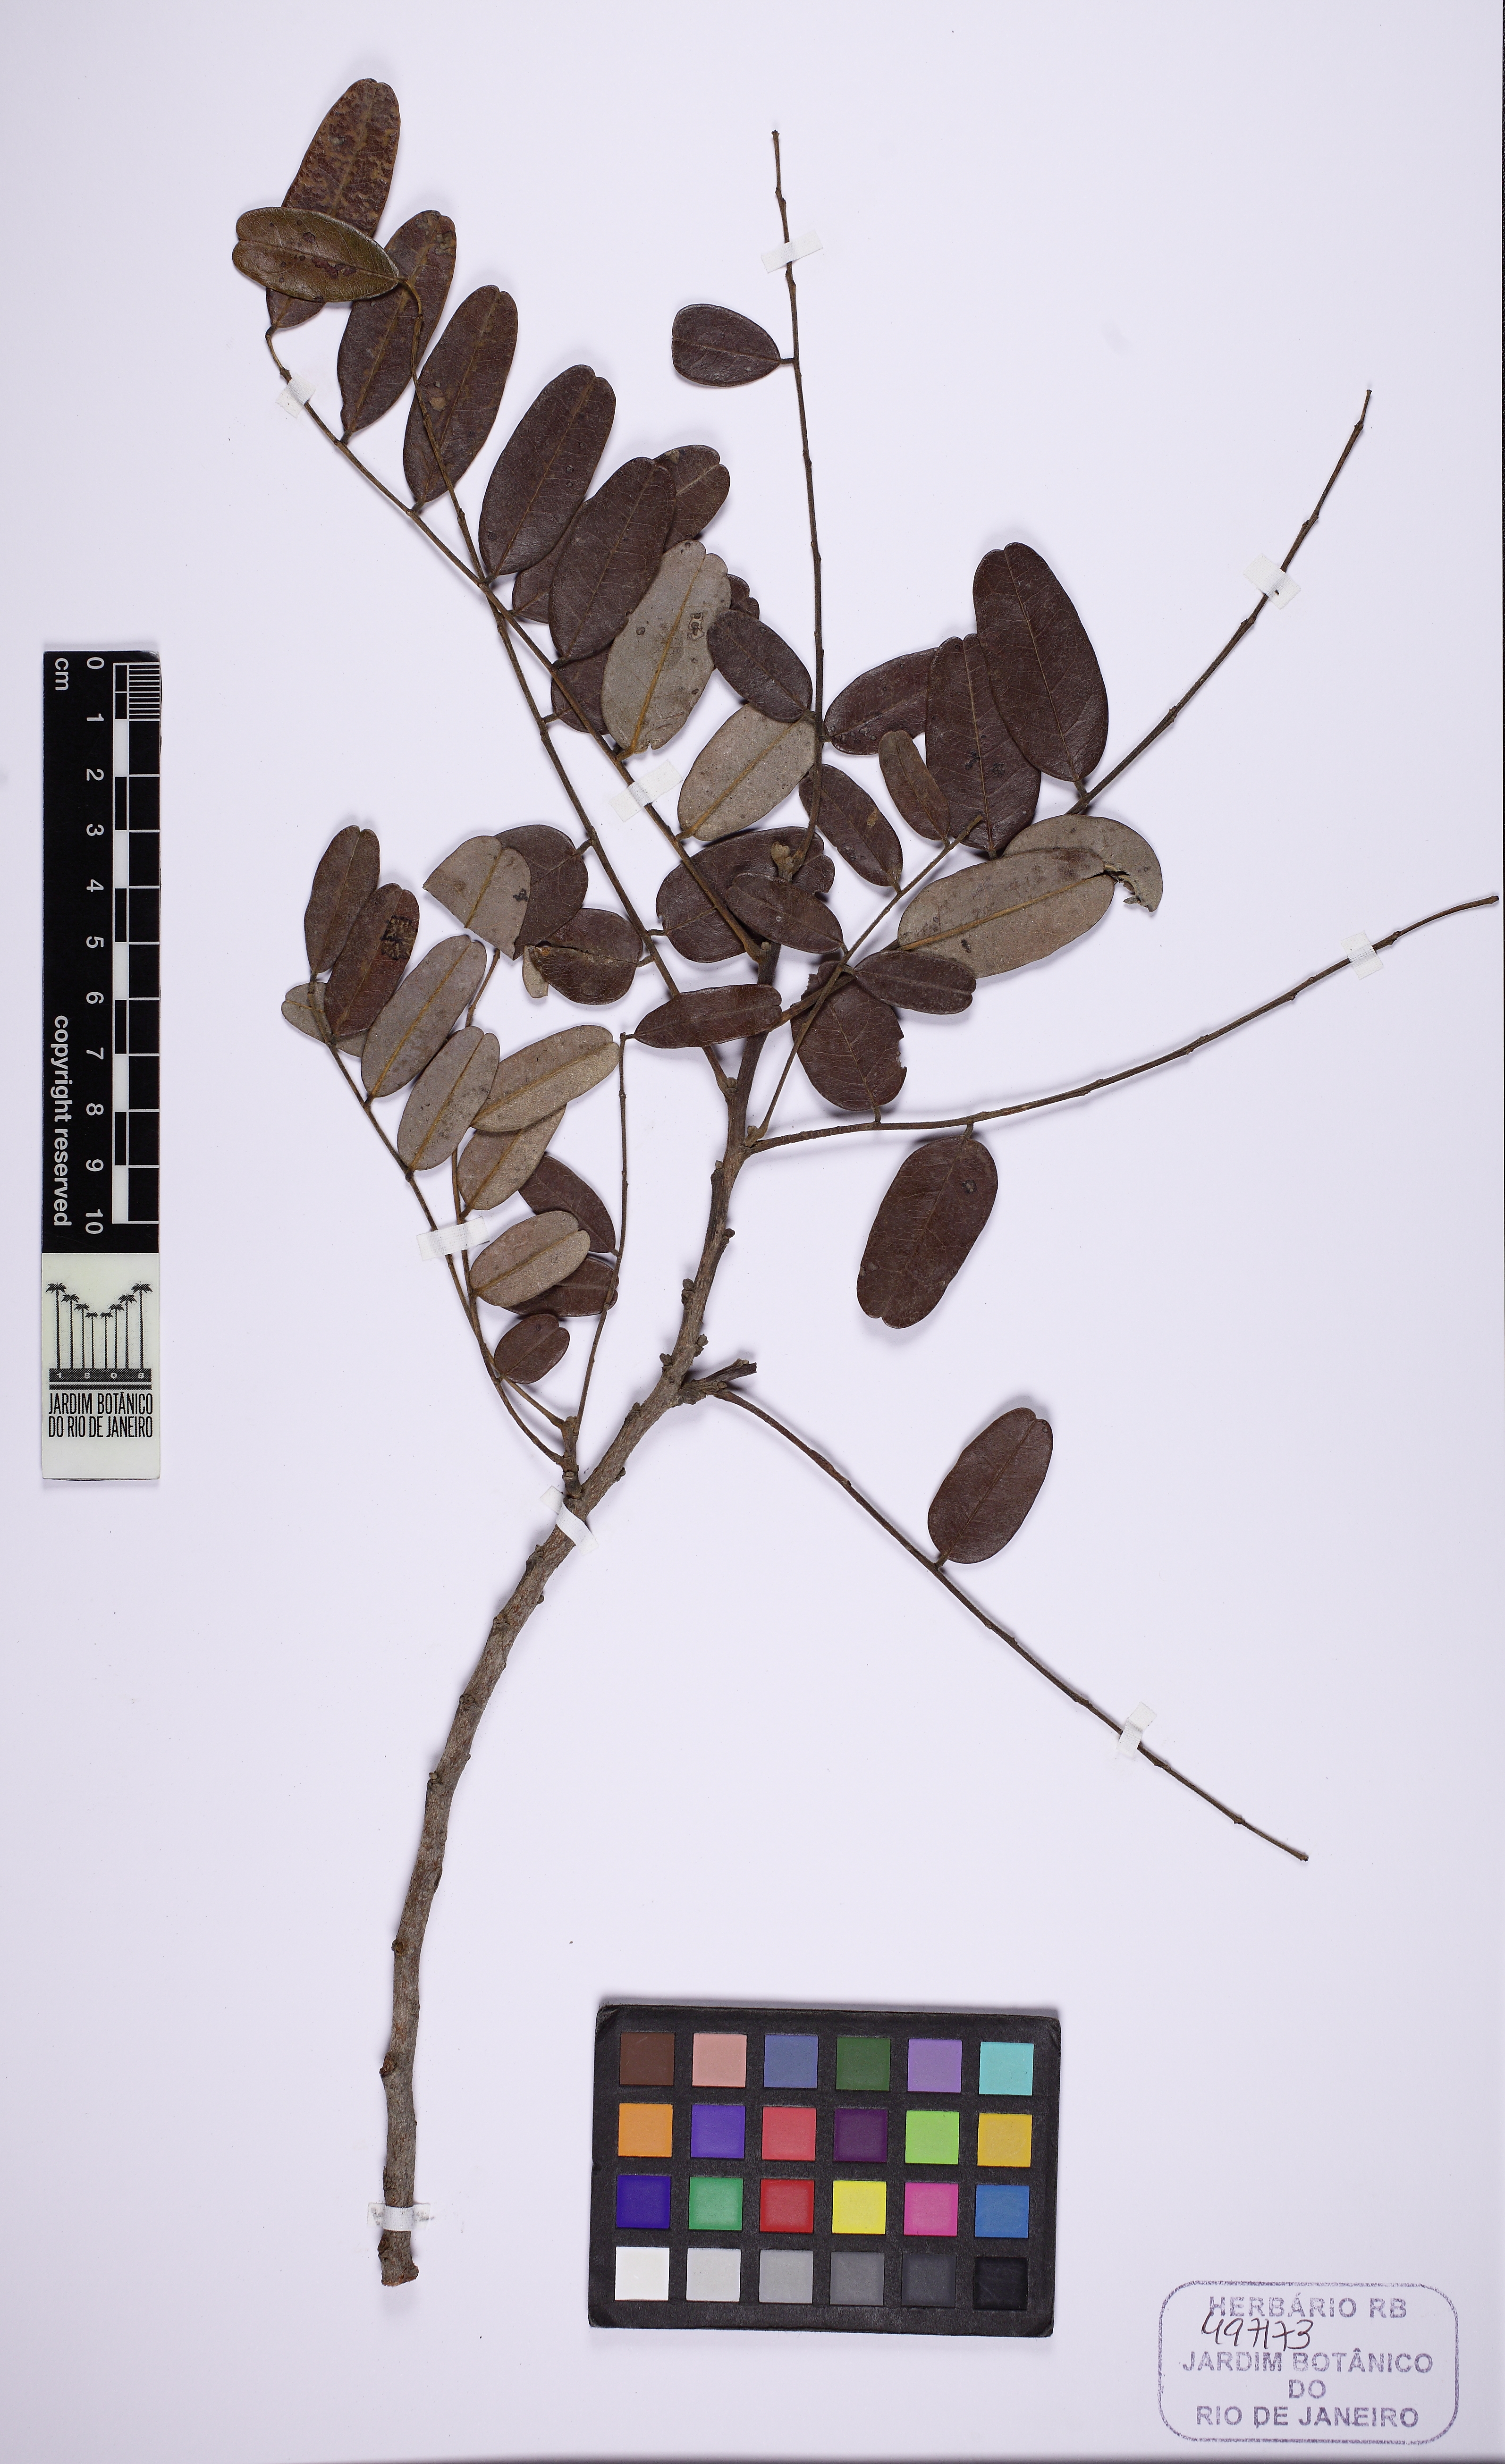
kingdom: Plantae
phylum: Tracheophyta
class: Magnoliopsida
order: Fabales
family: Fabaceae
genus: Bowdichia
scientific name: Bowdichia virgilioides
